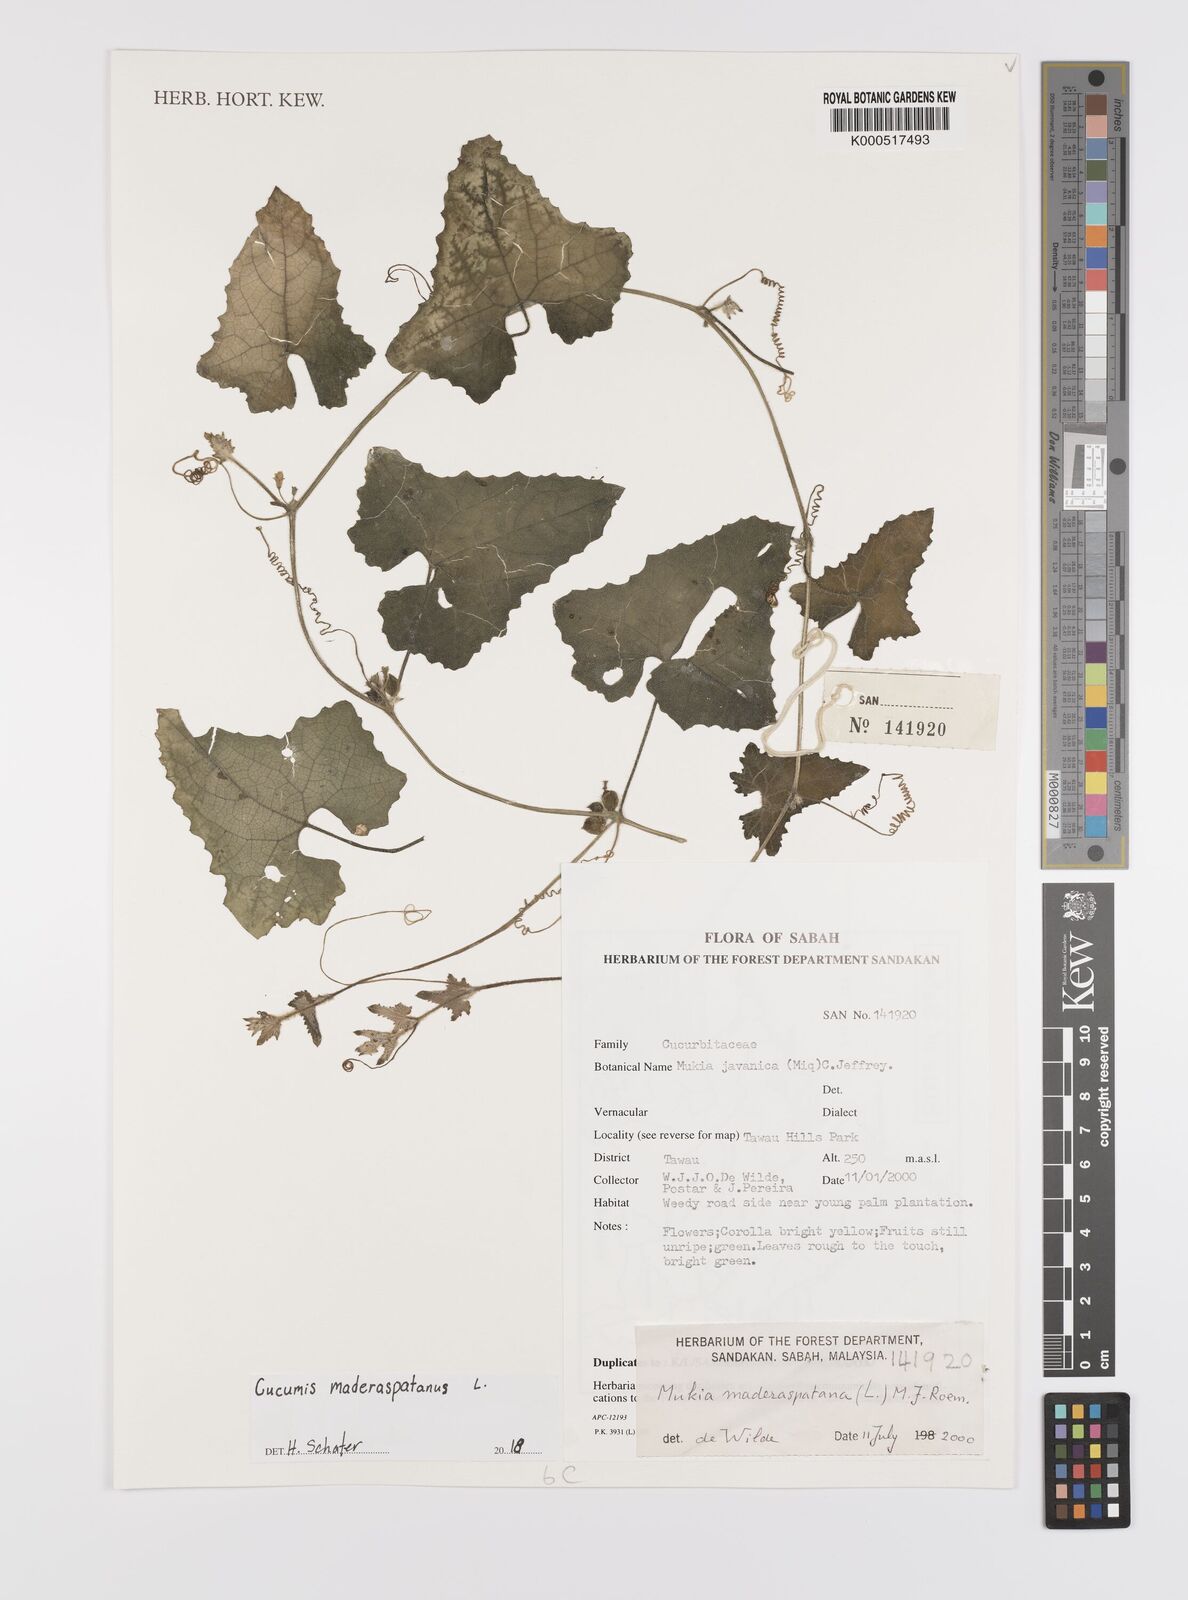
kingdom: Plantae
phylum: Tracheophyta
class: Magnoliopsida
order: Cucurbitales
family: Cucurbitaceae
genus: Cucumis
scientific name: Cucumis maderaspatanus
